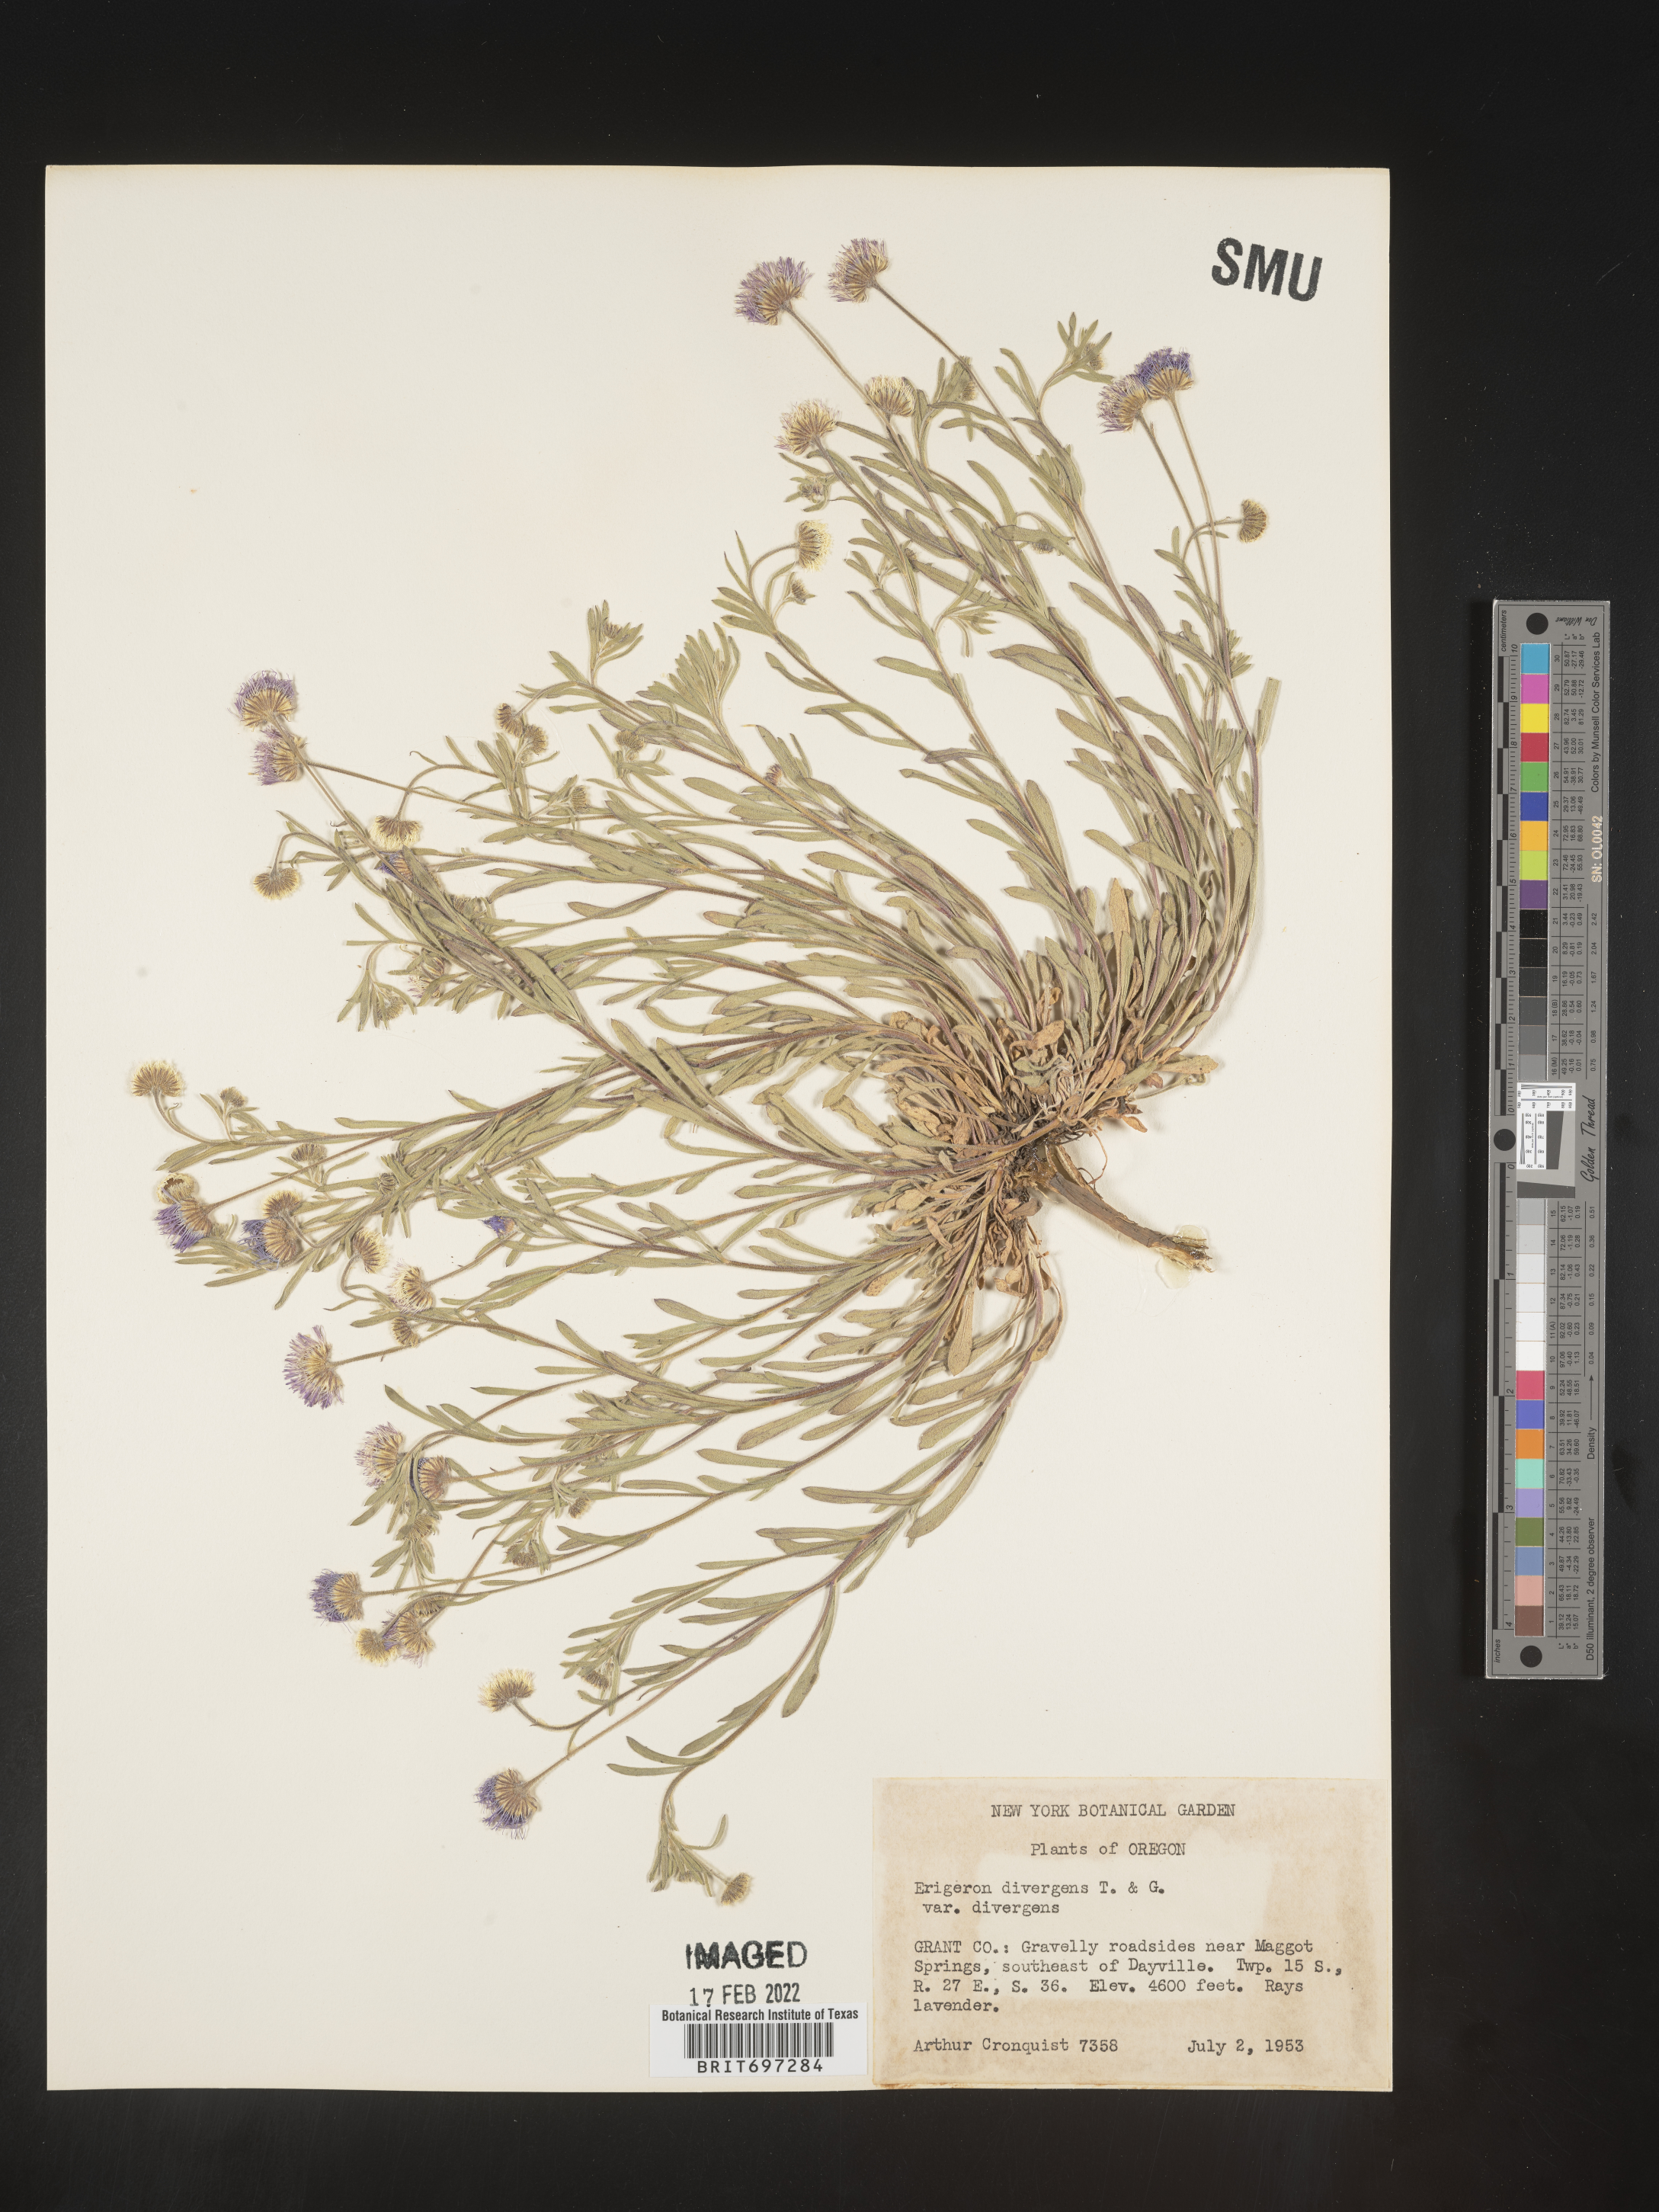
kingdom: Plantae
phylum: Tracheophyta
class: Magnoliopsida
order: Asterales
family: Asteraceae
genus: Erigeron
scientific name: Erigeron divergens
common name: Diffuse fleabane
